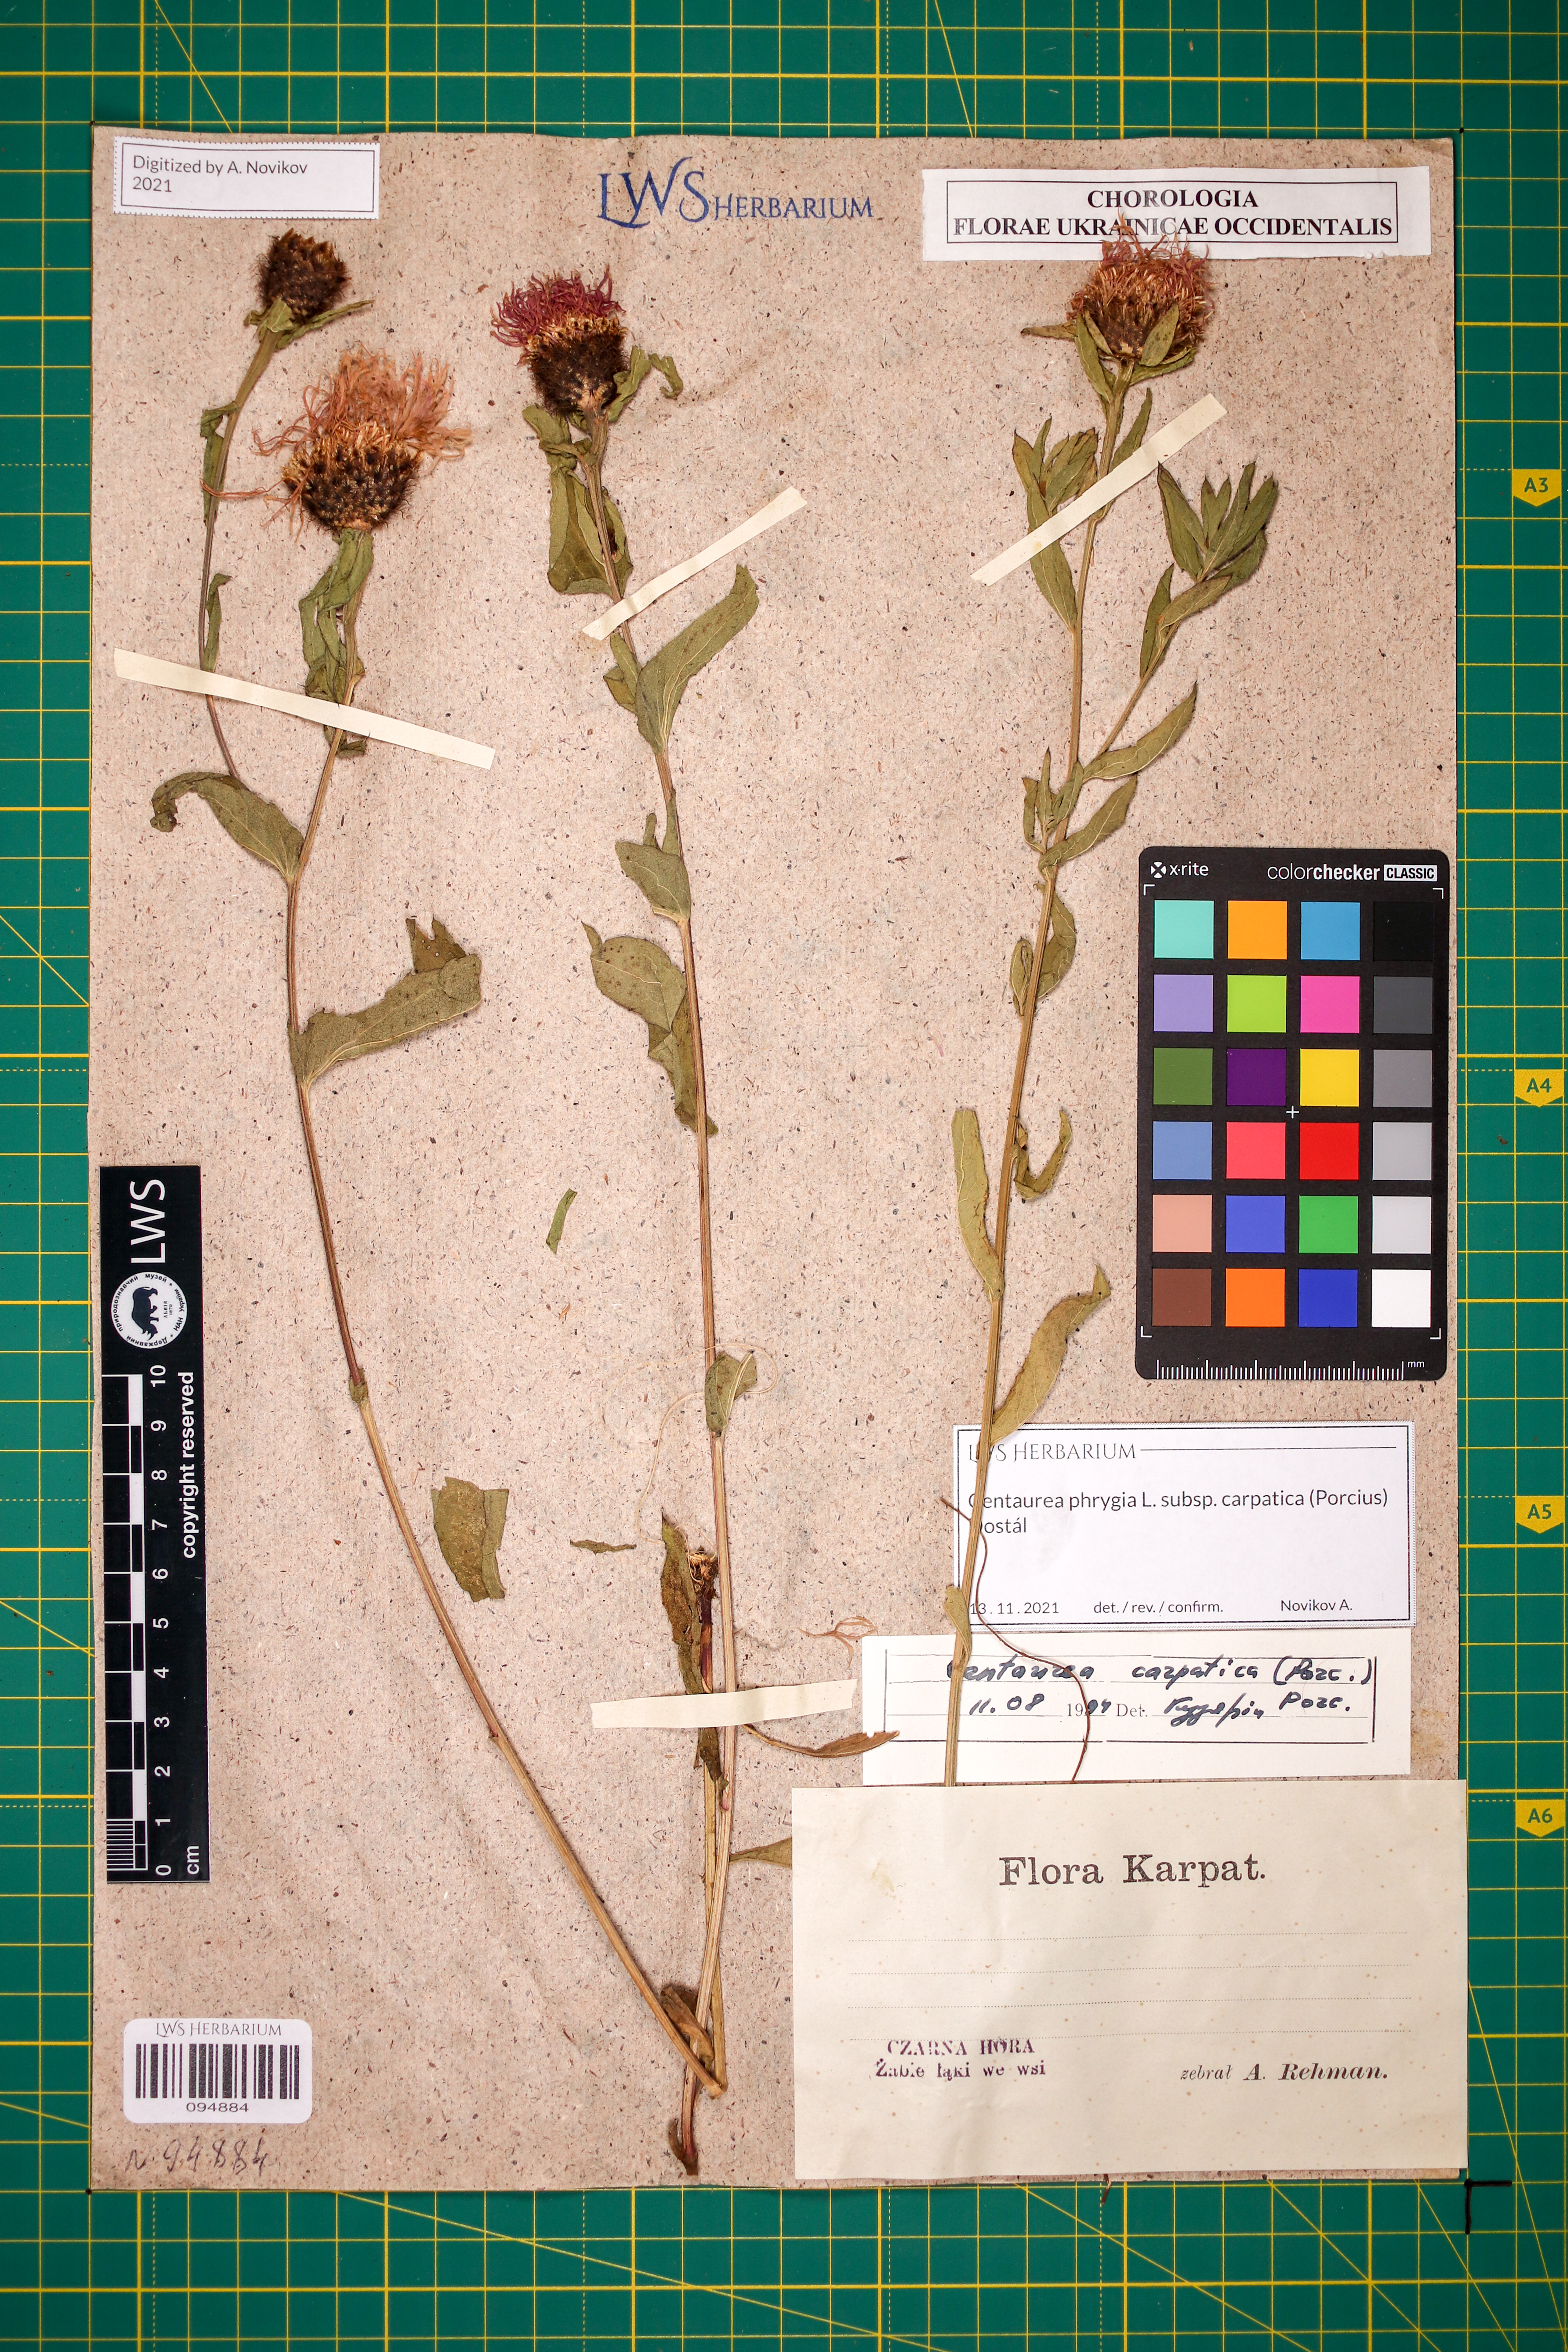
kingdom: Plantae
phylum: Tracheophyta
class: Magnoliopsida
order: Asterales
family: Asteraceae
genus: Centaurea
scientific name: Centaurea phrygia
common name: Wig knapweed
